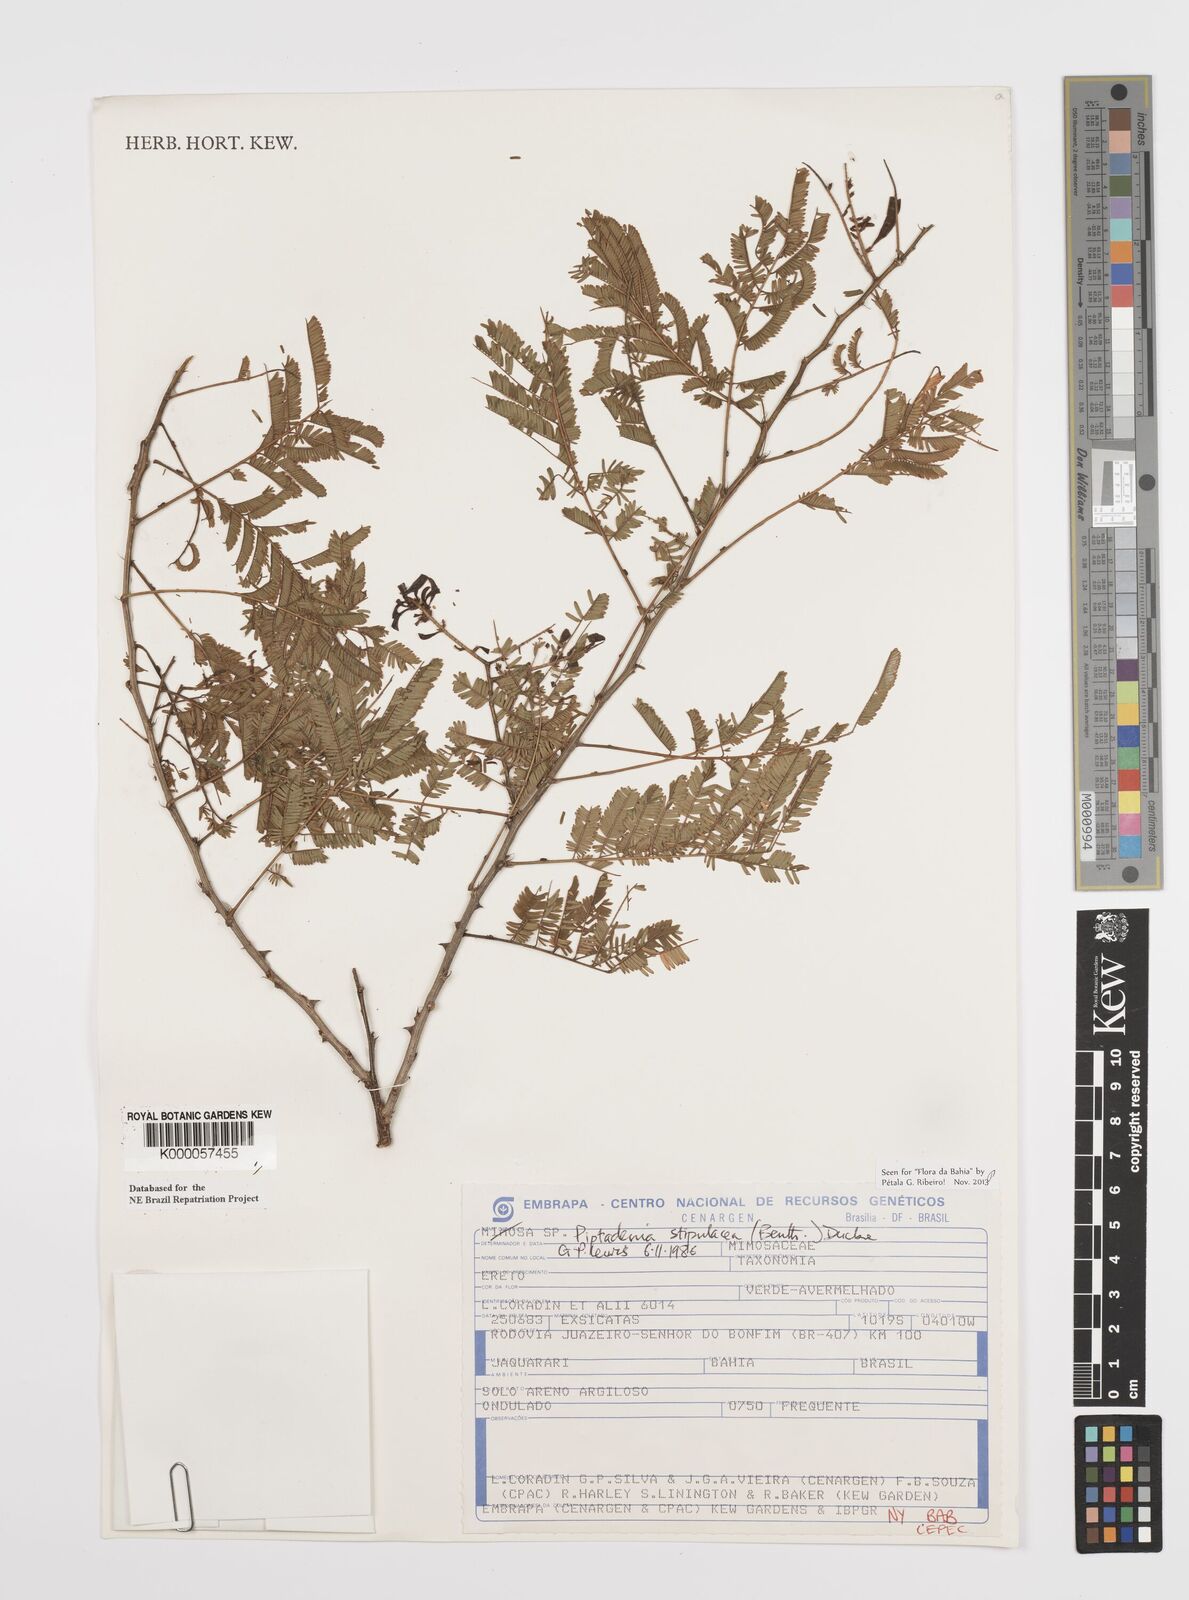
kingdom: Plantae
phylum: Tracheophyta
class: Magnoliopsida
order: Fabales
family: Fabaceae
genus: Piptadenia
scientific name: Piptadenia retusa
